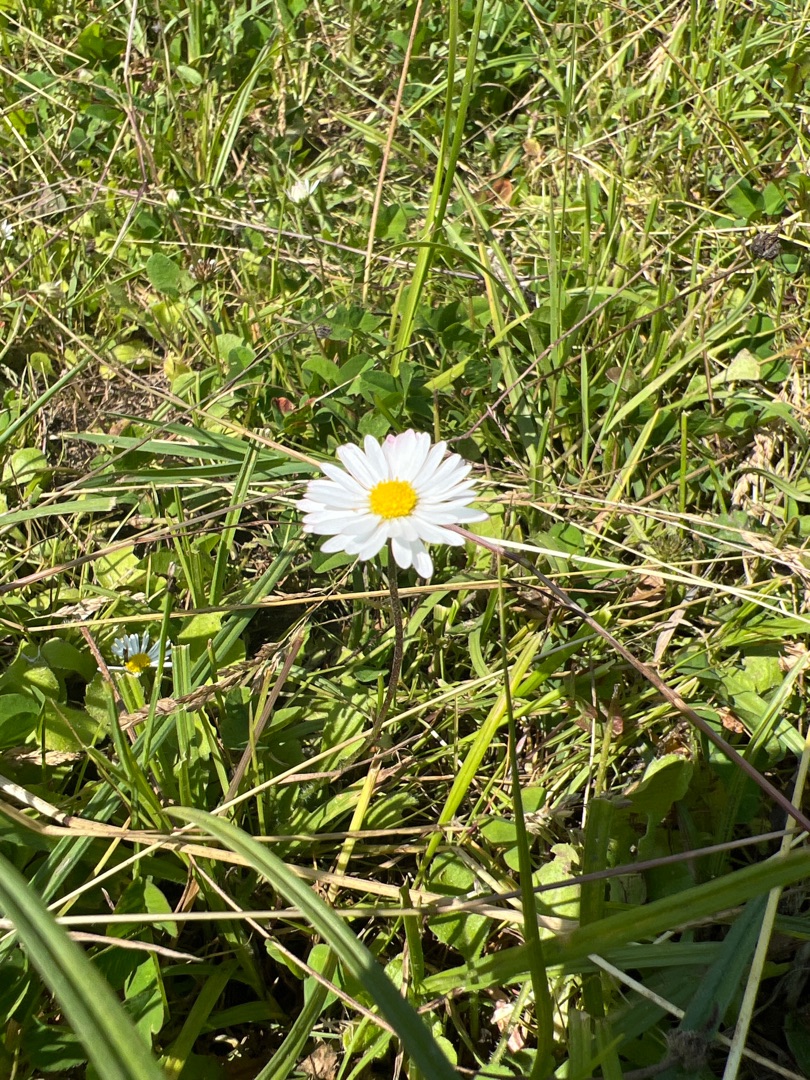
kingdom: Plantae
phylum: Tracheophyta
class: Magnoliopsida
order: Asterales
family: Asteraceae
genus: Bellis
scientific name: Bellis perennis
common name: Tusindfryd
